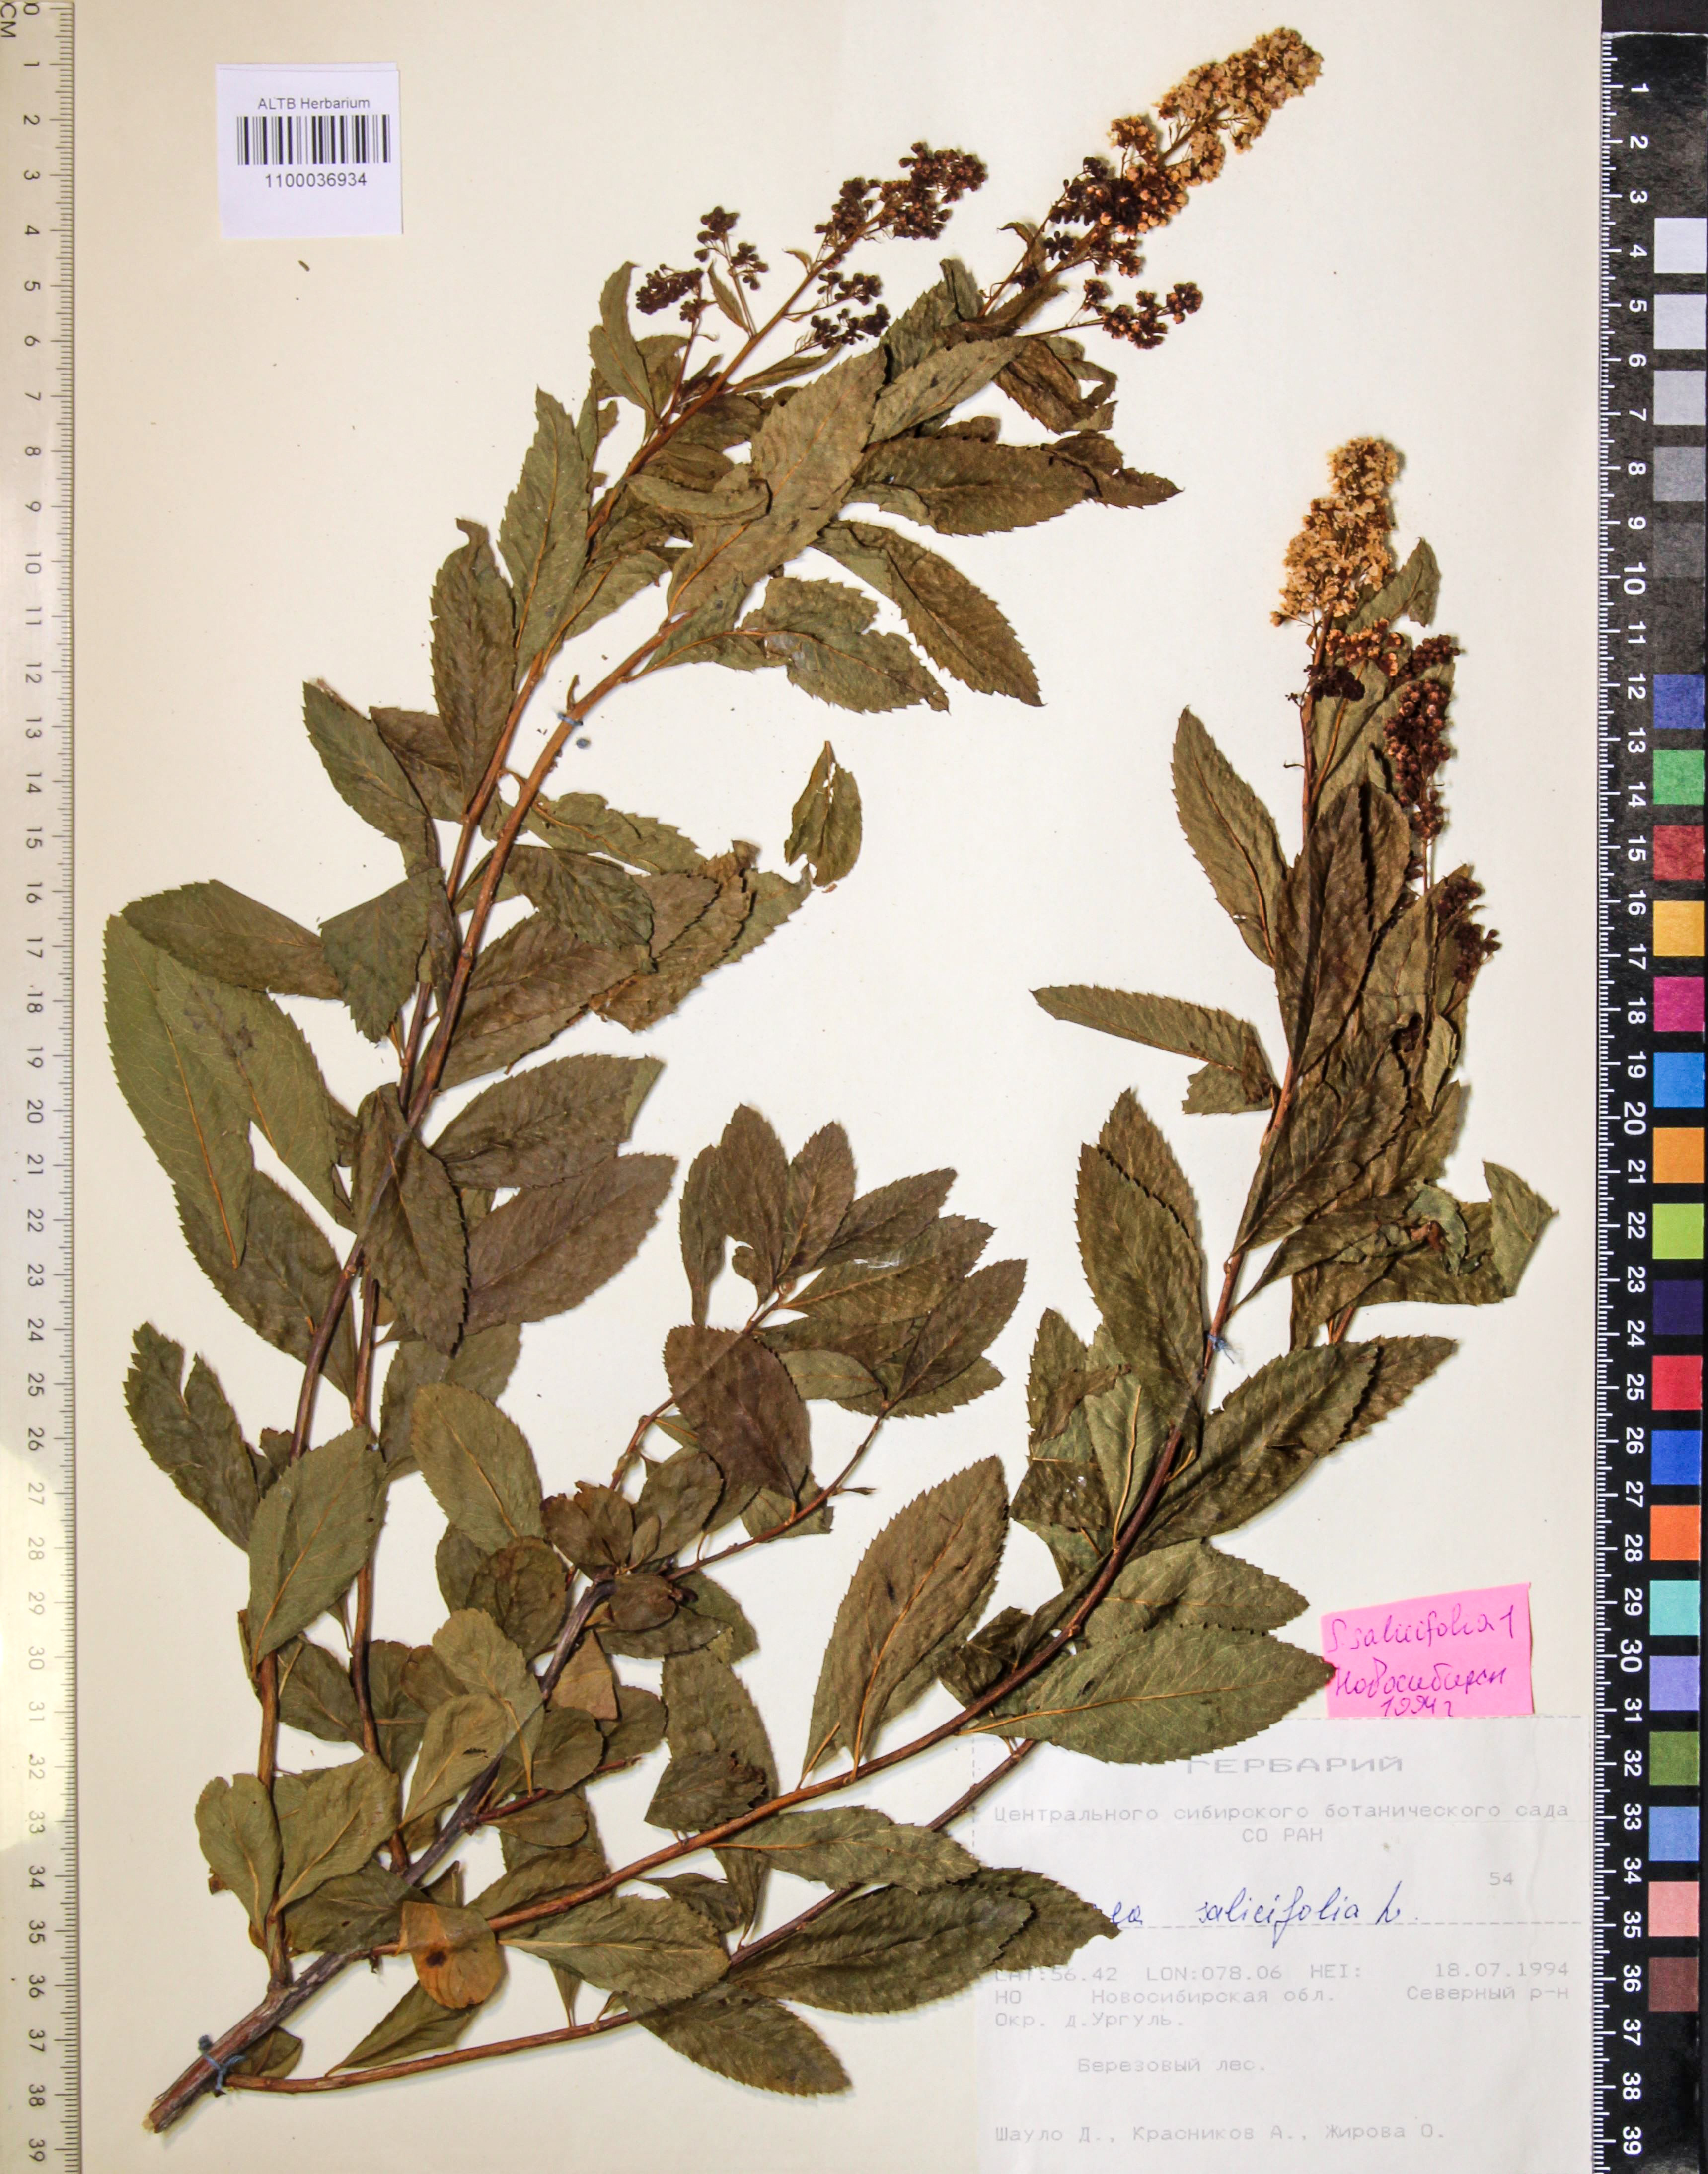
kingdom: Plantae
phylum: Tracheophyta
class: Magnoliopsida
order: Rosales
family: Rosaceae
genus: Spiraea
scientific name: Spiraea salicifolia
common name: Bridewort
